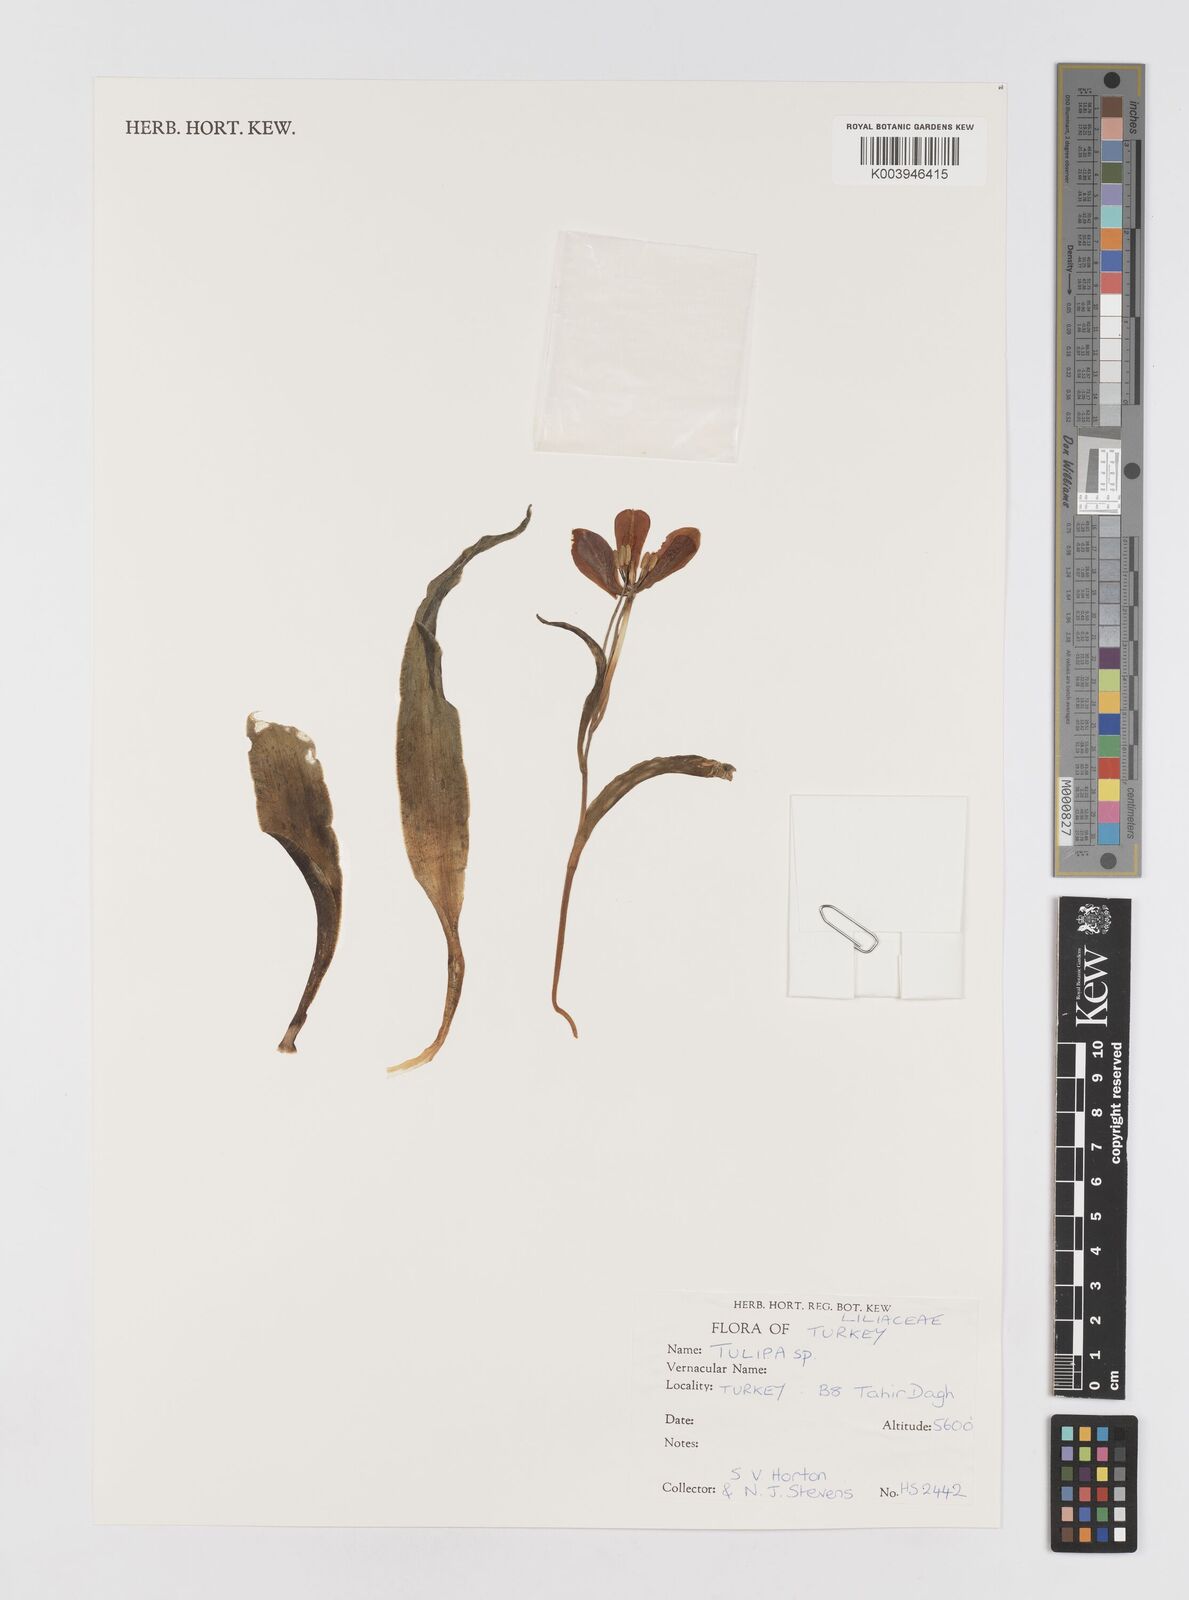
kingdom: Plantae
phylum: Tracheophyta
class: Liliopsida
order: Liliales
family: Liliaceae
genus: Tulipa
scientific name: Tulipa
